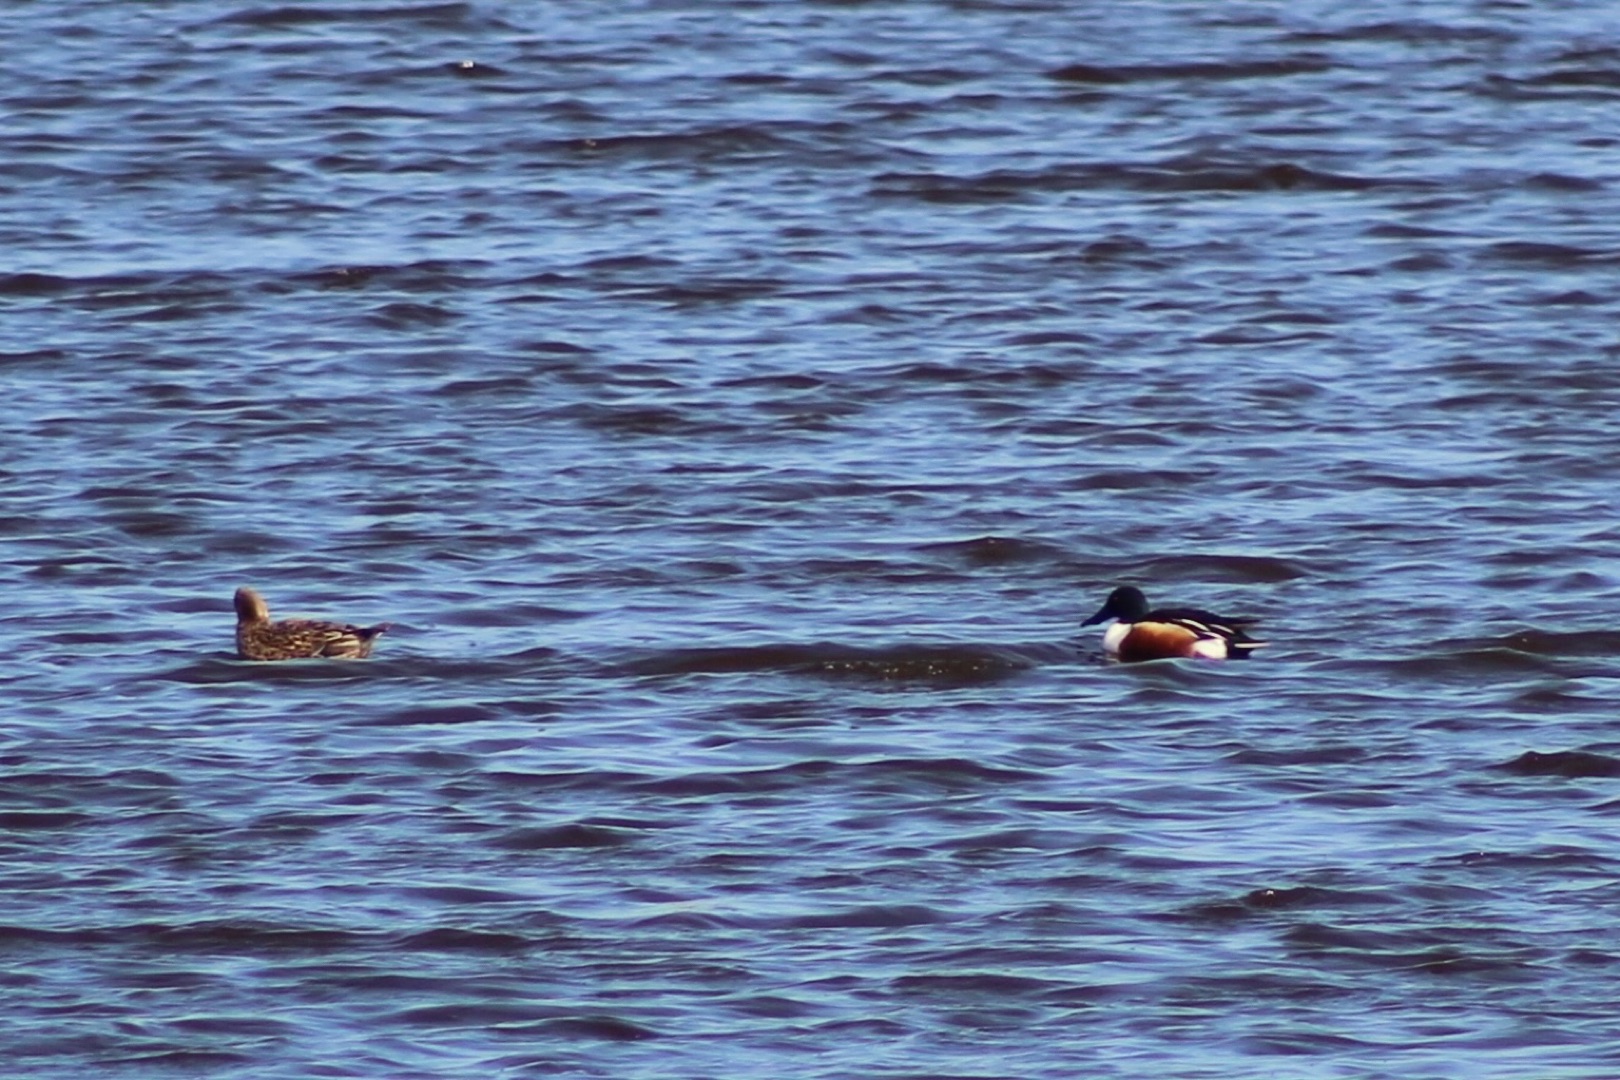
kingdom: Animalia
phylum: Chordata
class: Aves
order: Anseriformes
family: Anatidae
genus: Spatula
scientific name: Spatula clypeata
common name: Skeand
